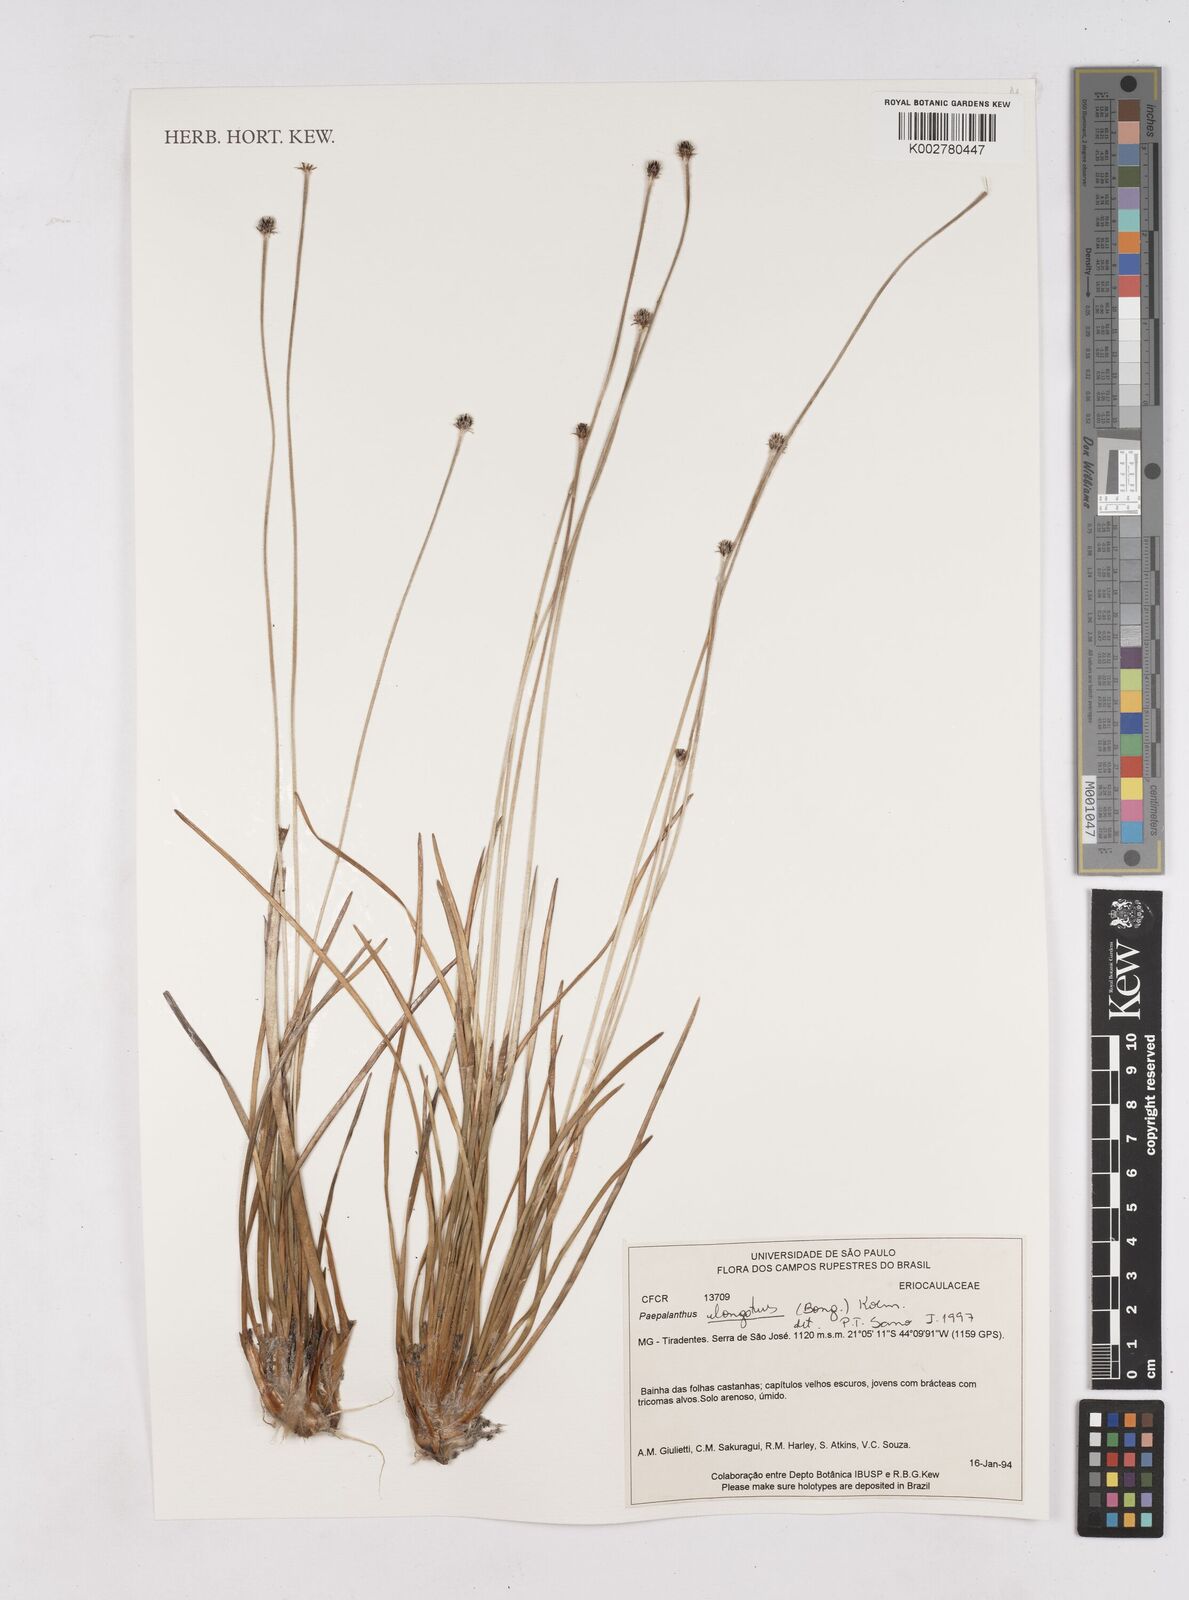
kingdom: Plantae
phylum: Tracheophyta
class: Liliopsida
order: Poales
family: Eriocaulaceae
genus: Paepalanthus
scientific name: Paepalanthus elongatus
